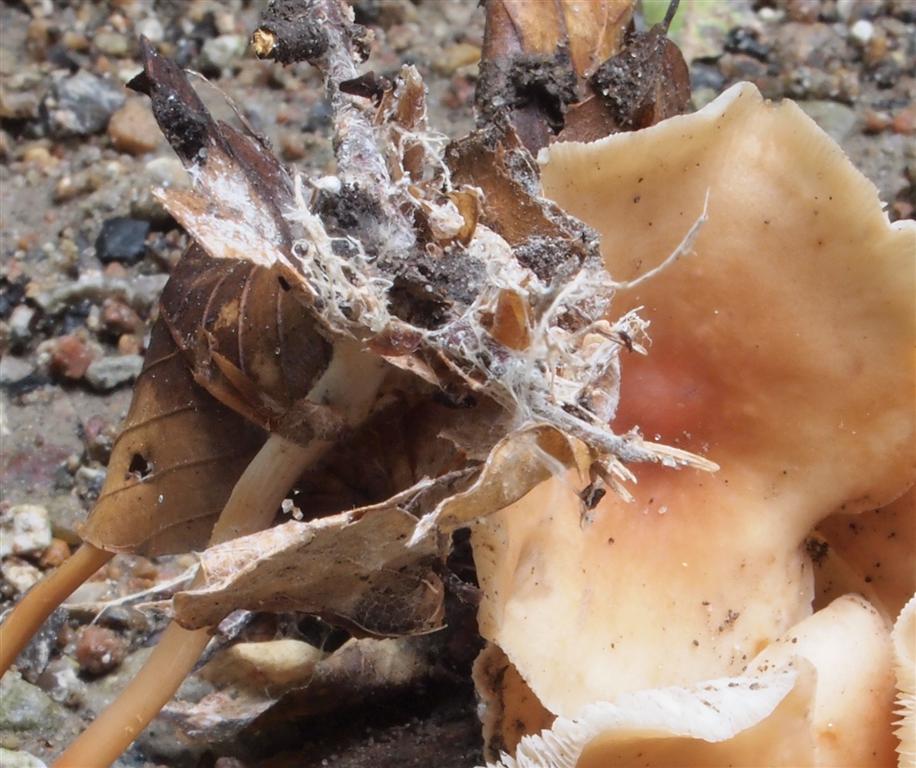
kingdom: Fungi
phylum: Basidiomycota
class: Agaricomycetes
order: Agaricales
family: Omphalotaceae
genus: Gymnopus
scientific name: Gymnopus dryophilus
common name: løv-fladhat
